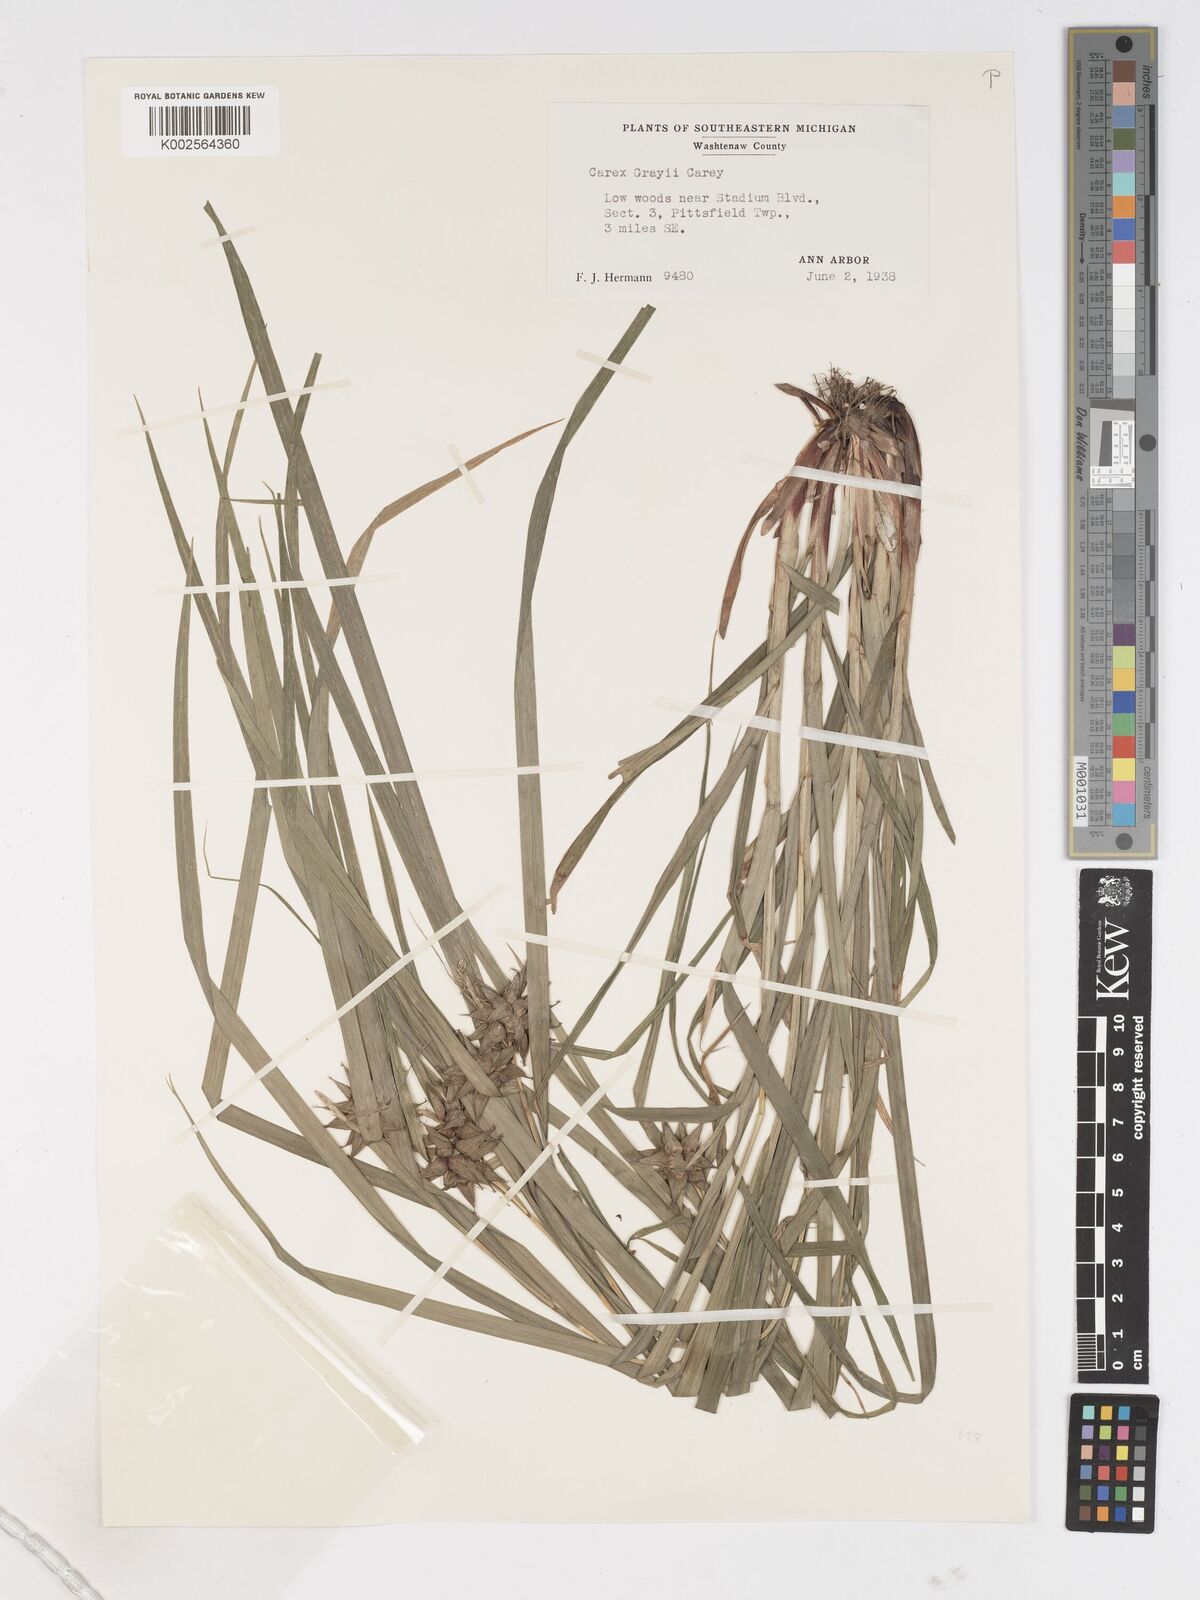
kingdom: Plantae
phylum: Tracheophyta
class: Liliopsida
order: Poales
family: Cyperaceae
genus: Carex
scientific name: Carex grayi
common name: Asa gray's sedge
